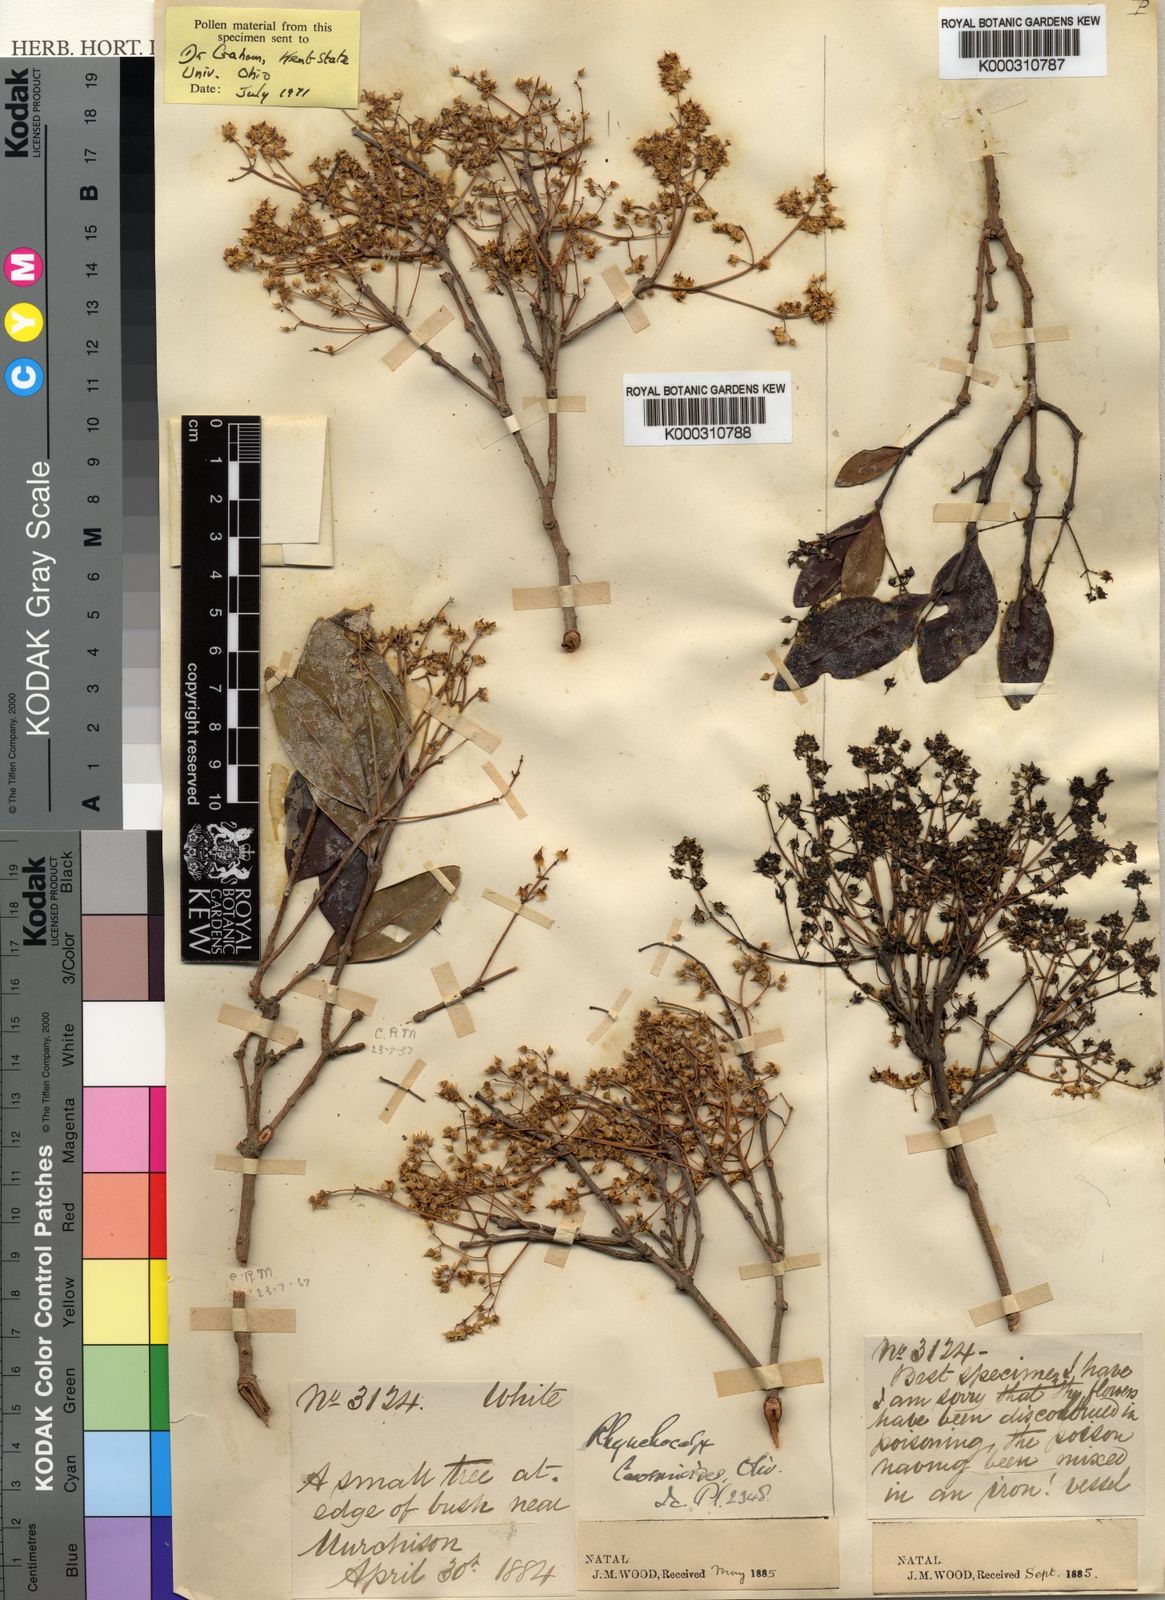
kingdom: Plantae
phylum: Tracheophyta
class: Magnoliopsida
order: Myrtales
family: Penaeaceae
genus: Rhynchocalyx
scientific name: Rhynchocalyx lawsonioides
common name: False-waterberry
